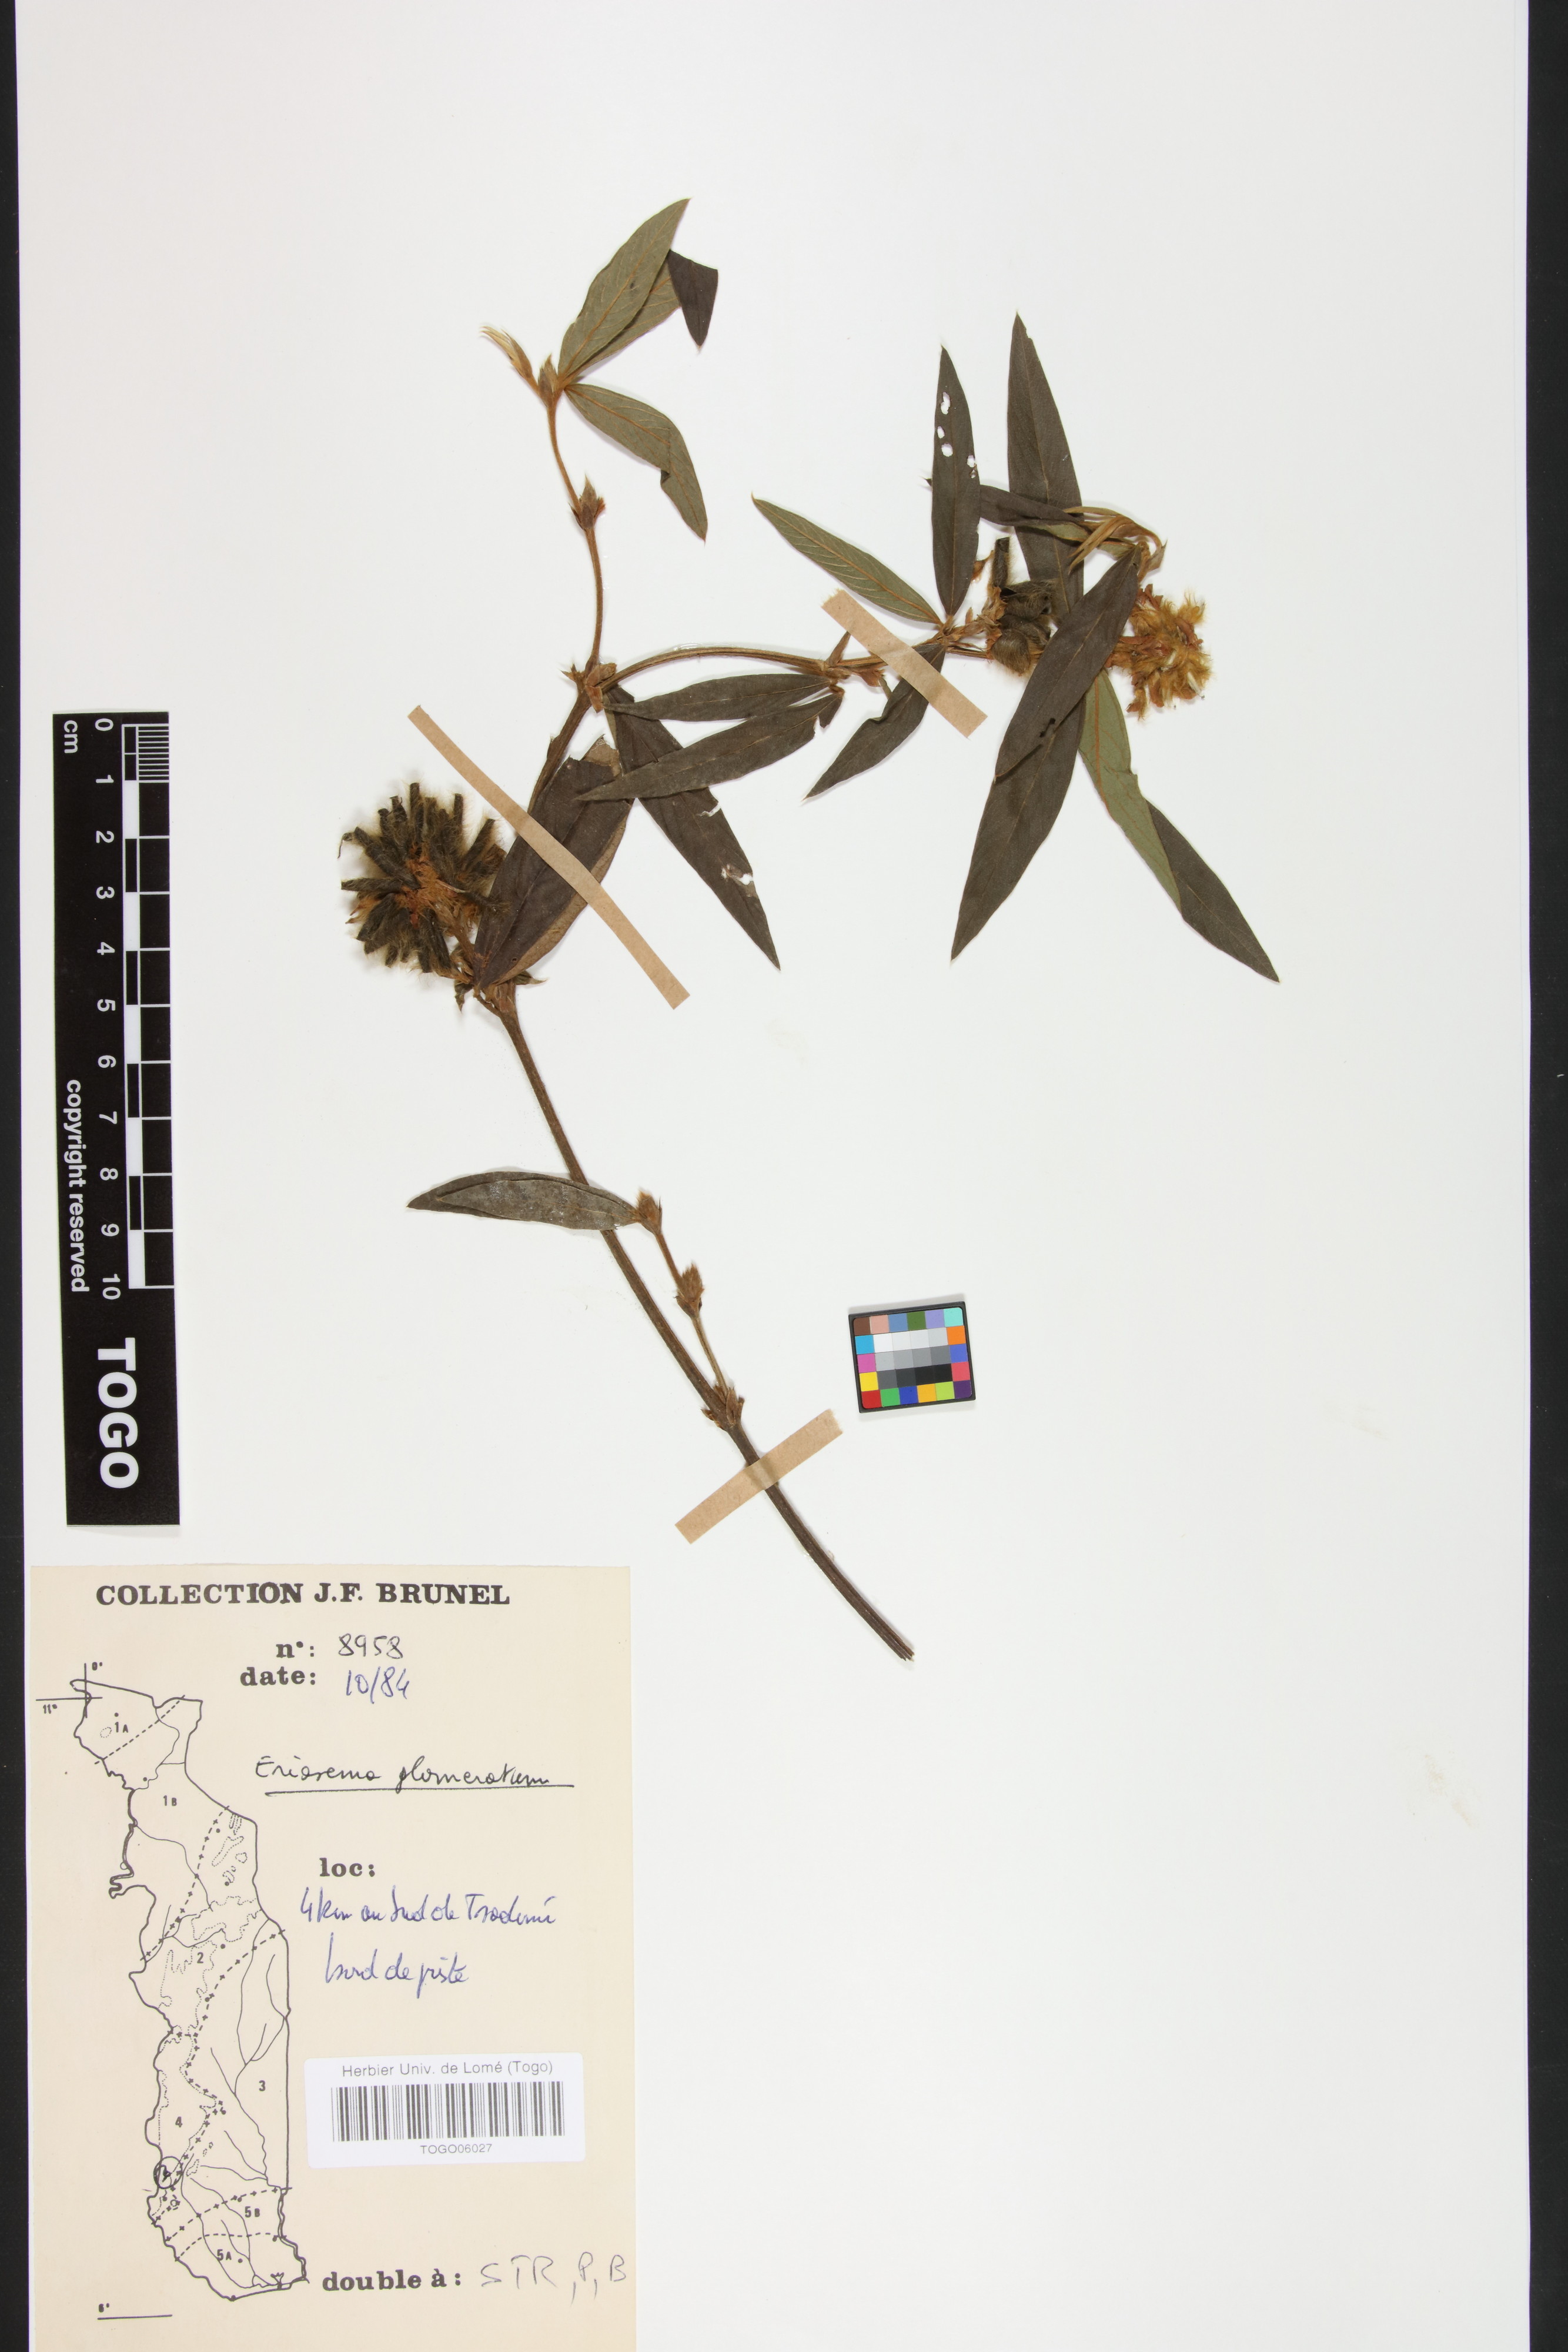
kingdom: Plantae
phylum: Tracheophyta
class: Magnoliopsida
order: Fabales
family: Fabaceae
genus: Eriosema
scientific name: Eriosema glomeratum
